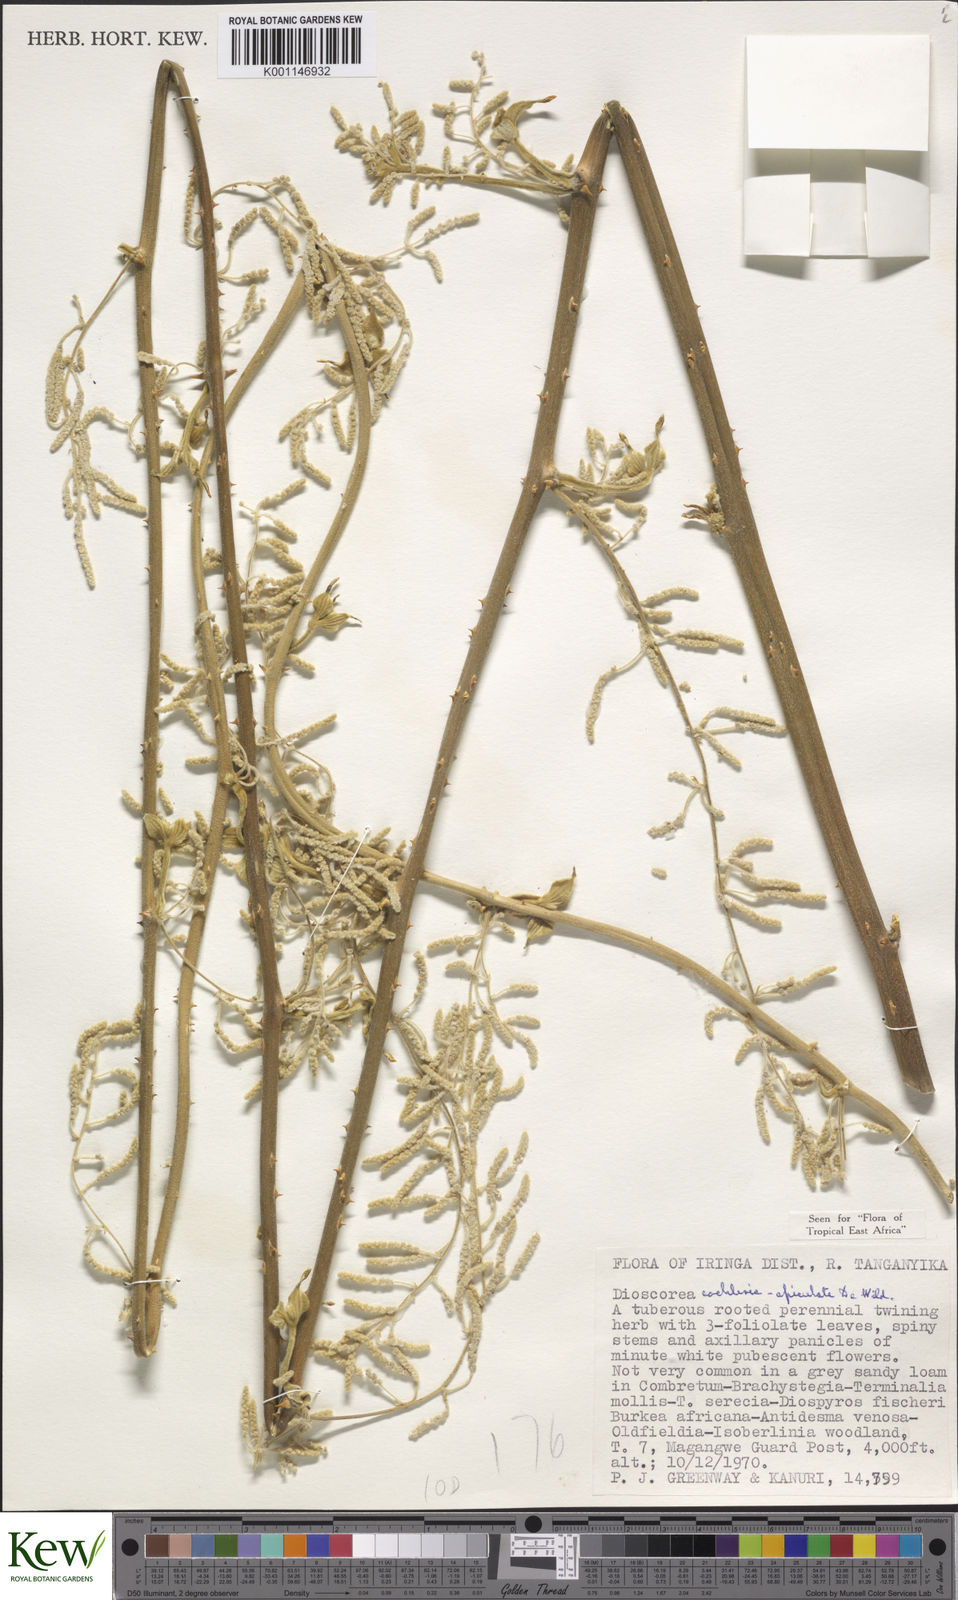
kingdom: Plantae
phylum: Tracheophyta
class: Liliopsida
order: Dioscoreales
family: Dioscoreaceae
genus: Dioscorea
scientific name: Dioscorea cochleariapiculata
